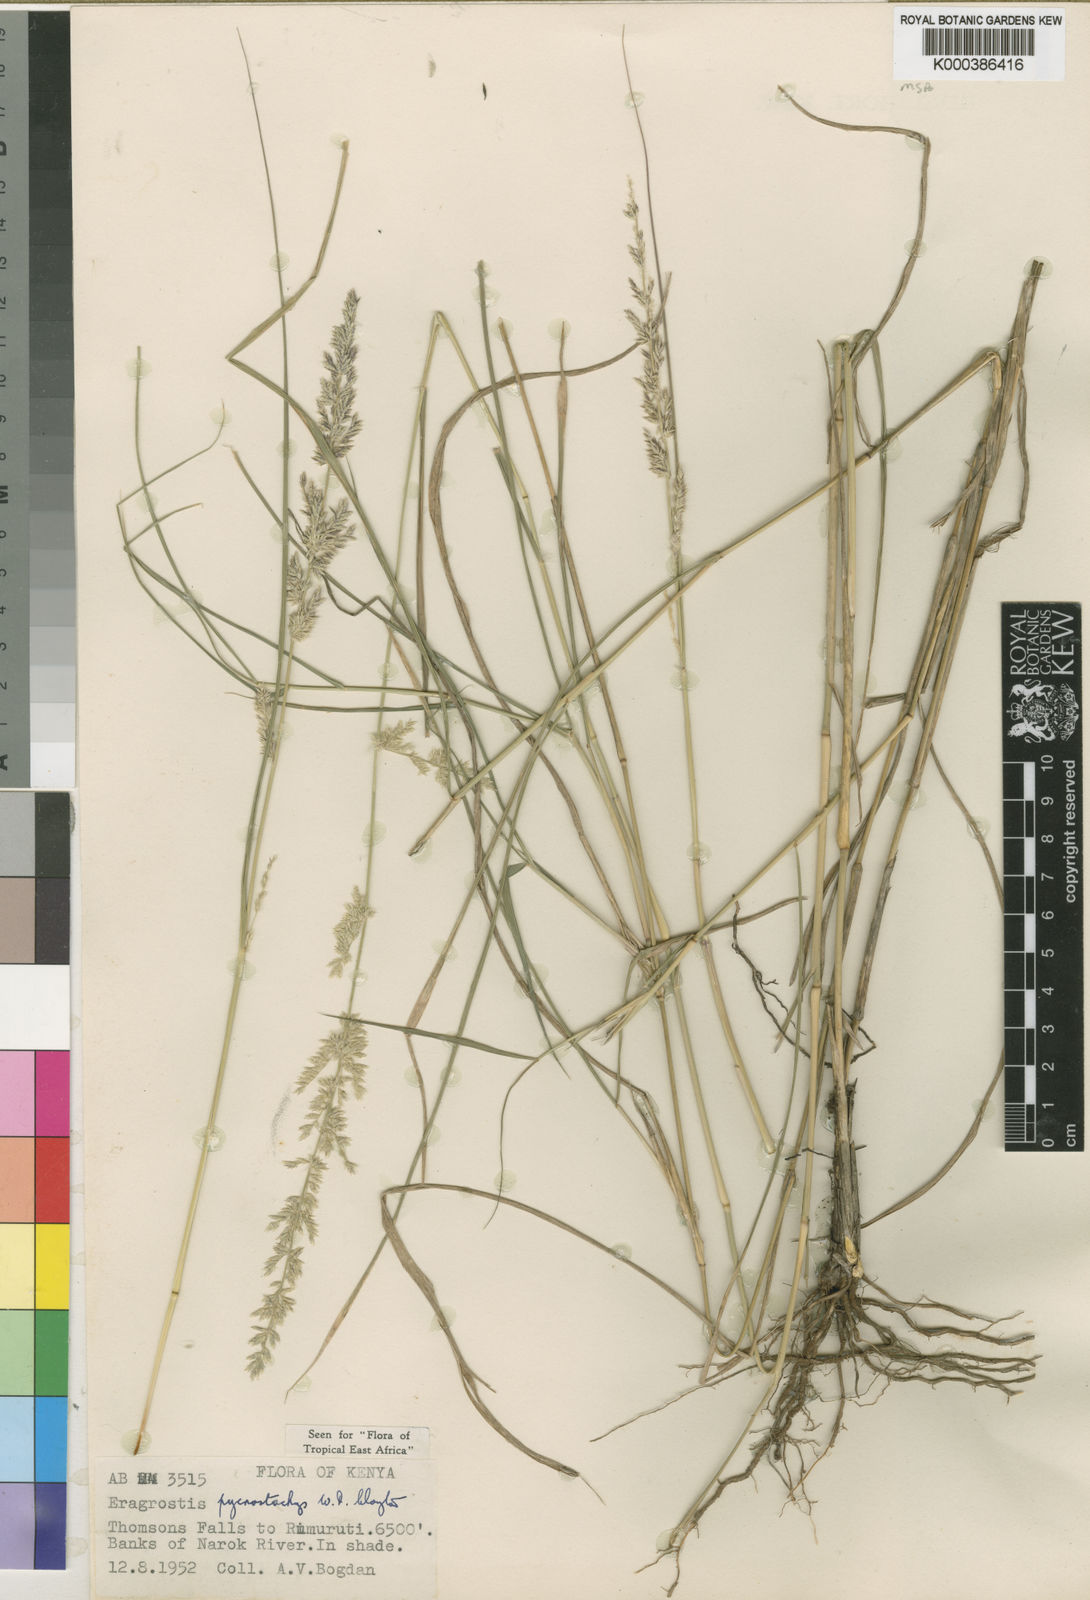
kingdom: Plantae
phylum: Tracheophyta
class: Liliopsida
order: Poales
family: Poaceae
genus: Eragrostis
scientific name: Eragrostis pycnostachys
